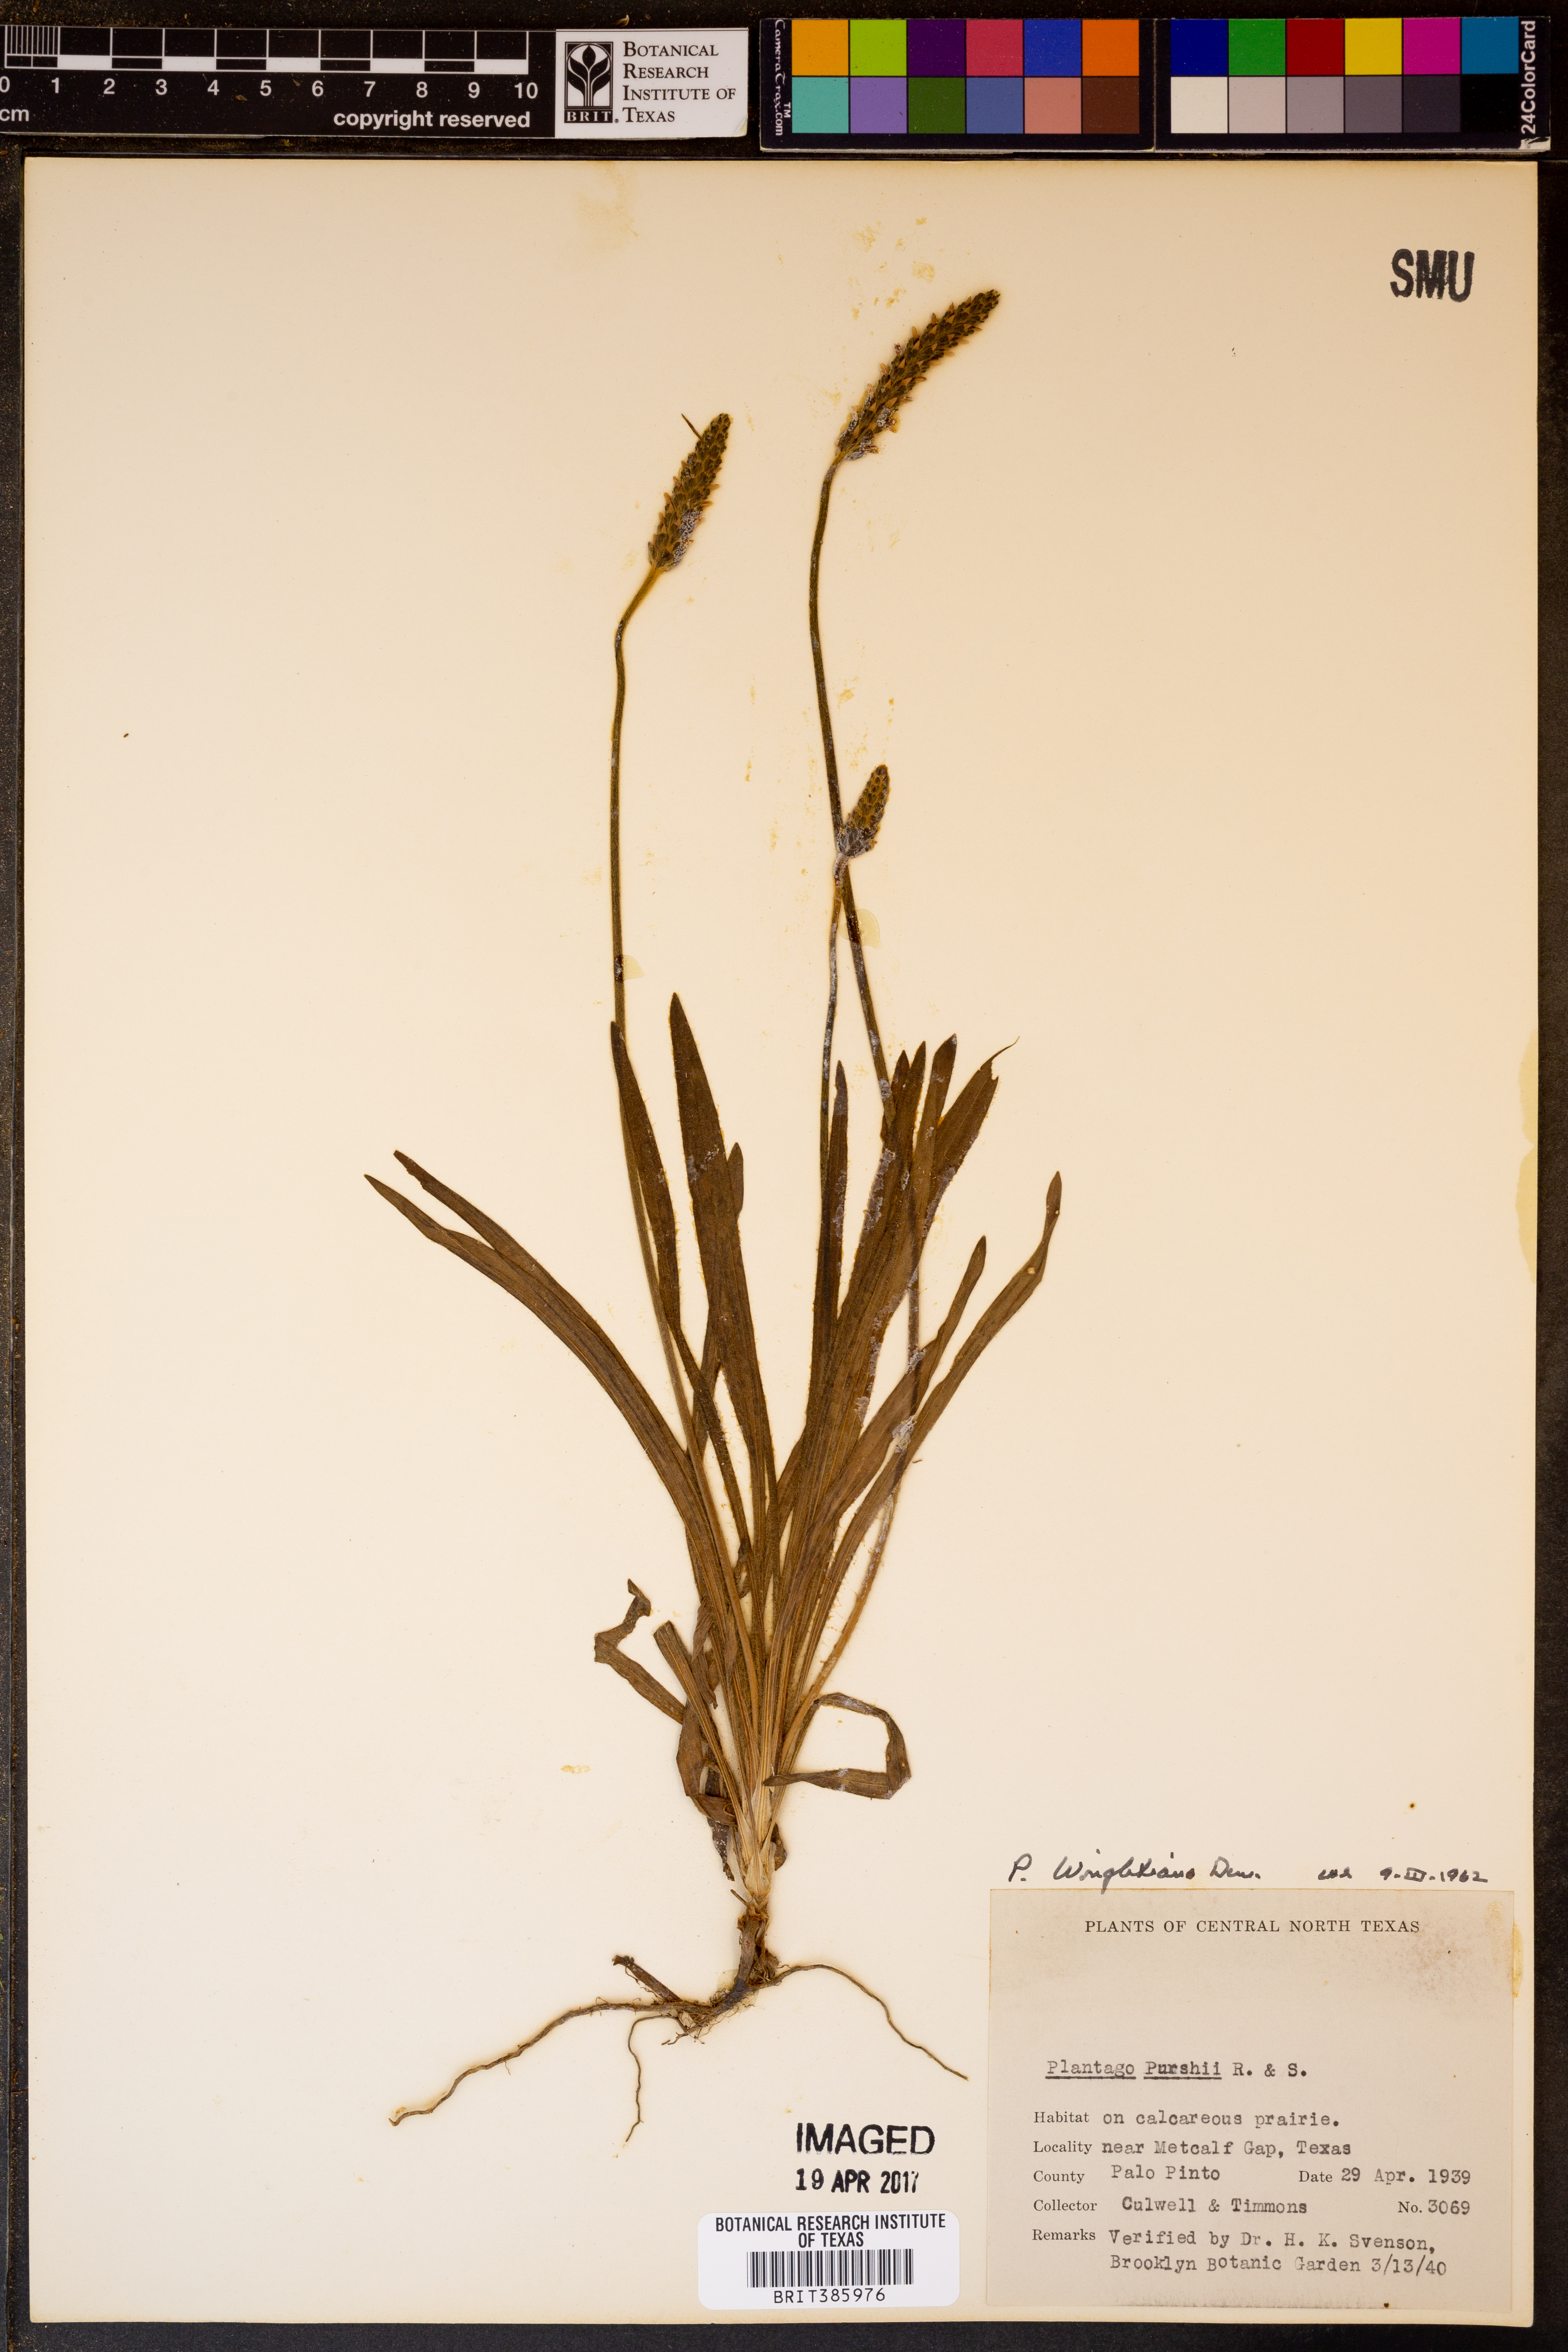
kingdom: Plantae
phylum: Tracheophyta
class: Magnoliopsida
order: Lamiales
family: Plantaginaceae
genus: Plantago
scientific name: Plantago wrightiana
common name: Wright's plantain
